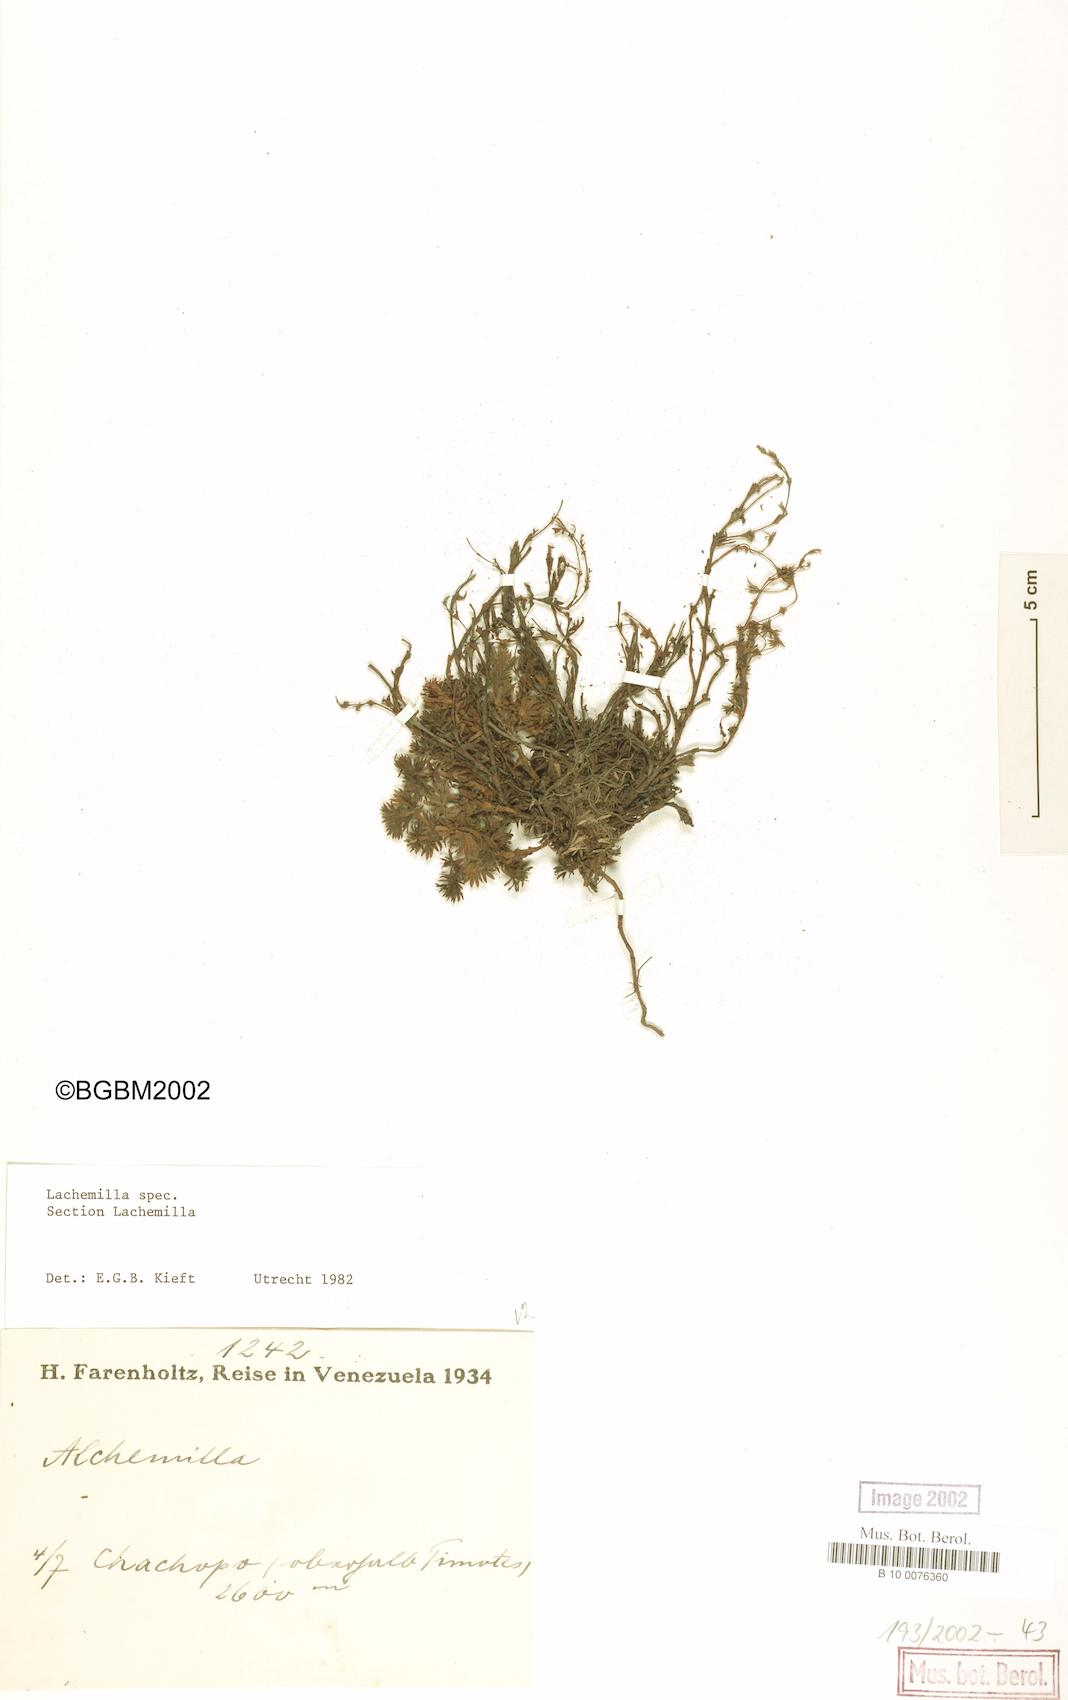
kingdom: Plantae
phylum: Tracheophyta
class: Magnoliopsida
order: Rosales
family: Rosaceae
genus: Lachemilla
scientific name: Lachemilla
